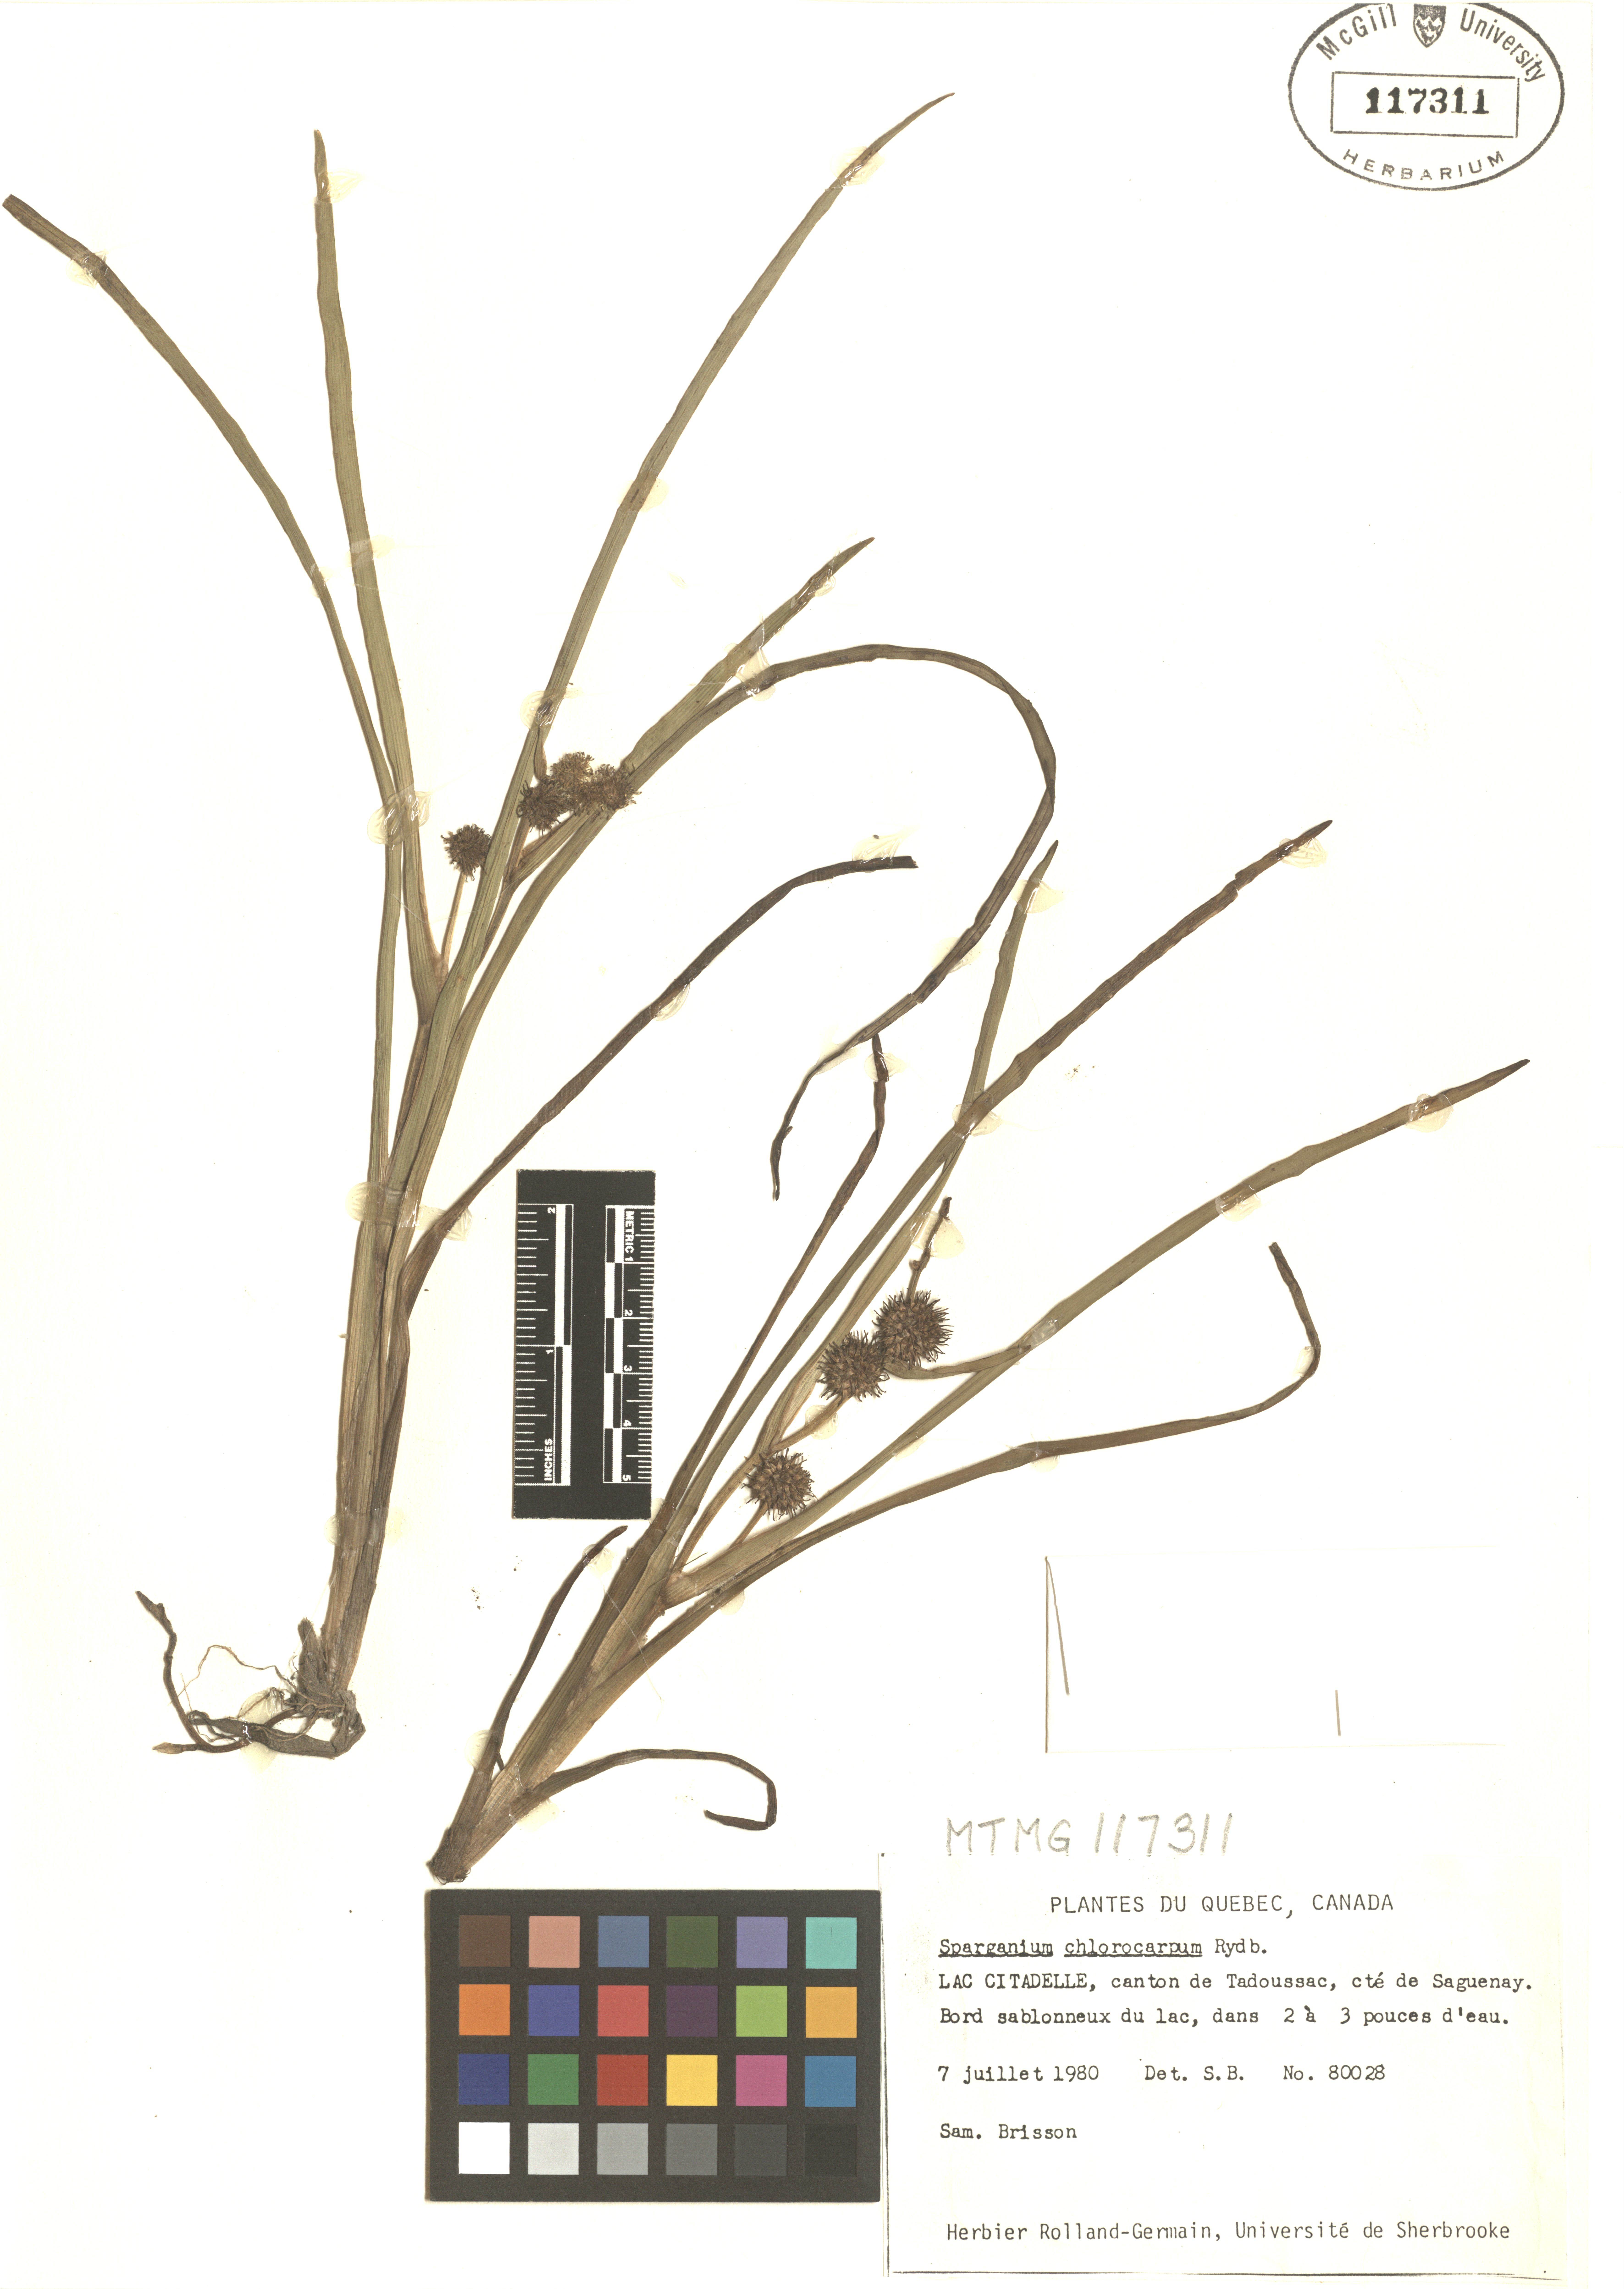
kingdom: Plantae
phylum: Tracheophyta
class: Liliopsida
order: Poales
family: Typhaceae
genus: Sparganium
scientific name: Sparganium emersum
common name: Unbranched bur-reed
